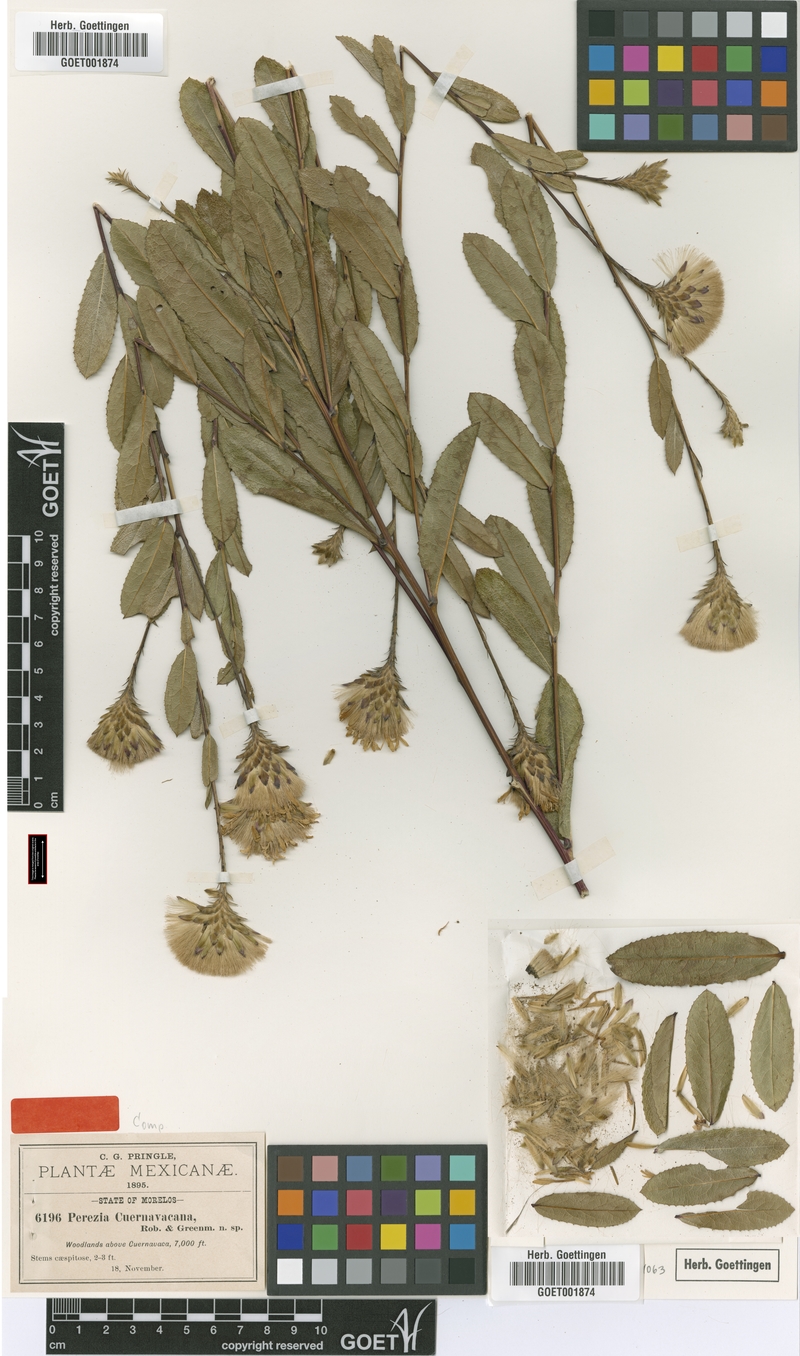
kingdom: Plantae
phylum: Tracheophyta
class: Magnoliopsida
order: Asterales
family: Asteraceae
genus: Acourtia
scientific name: Acourtia cuernavacana
